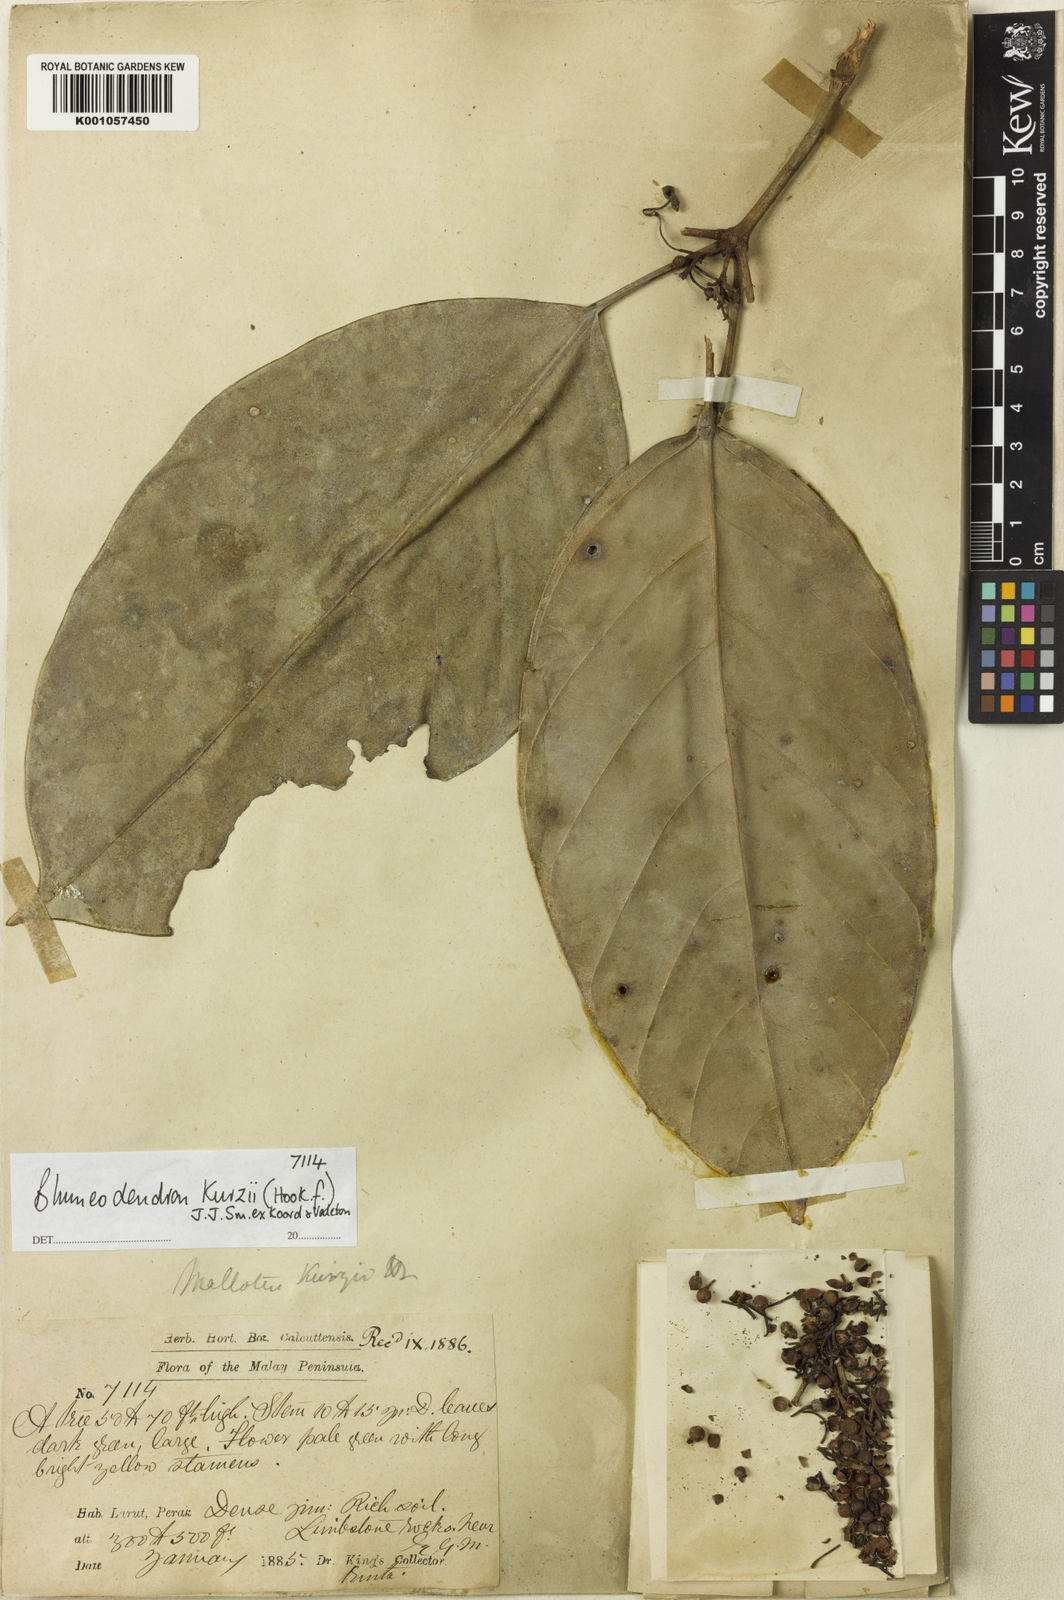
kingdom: Plantae
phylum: Tracheophyta
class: Magnoliopsida
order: Malpighiales
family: Euphorbiaceae
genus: Blumeodendron
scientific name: Blumeodendron kurzii
